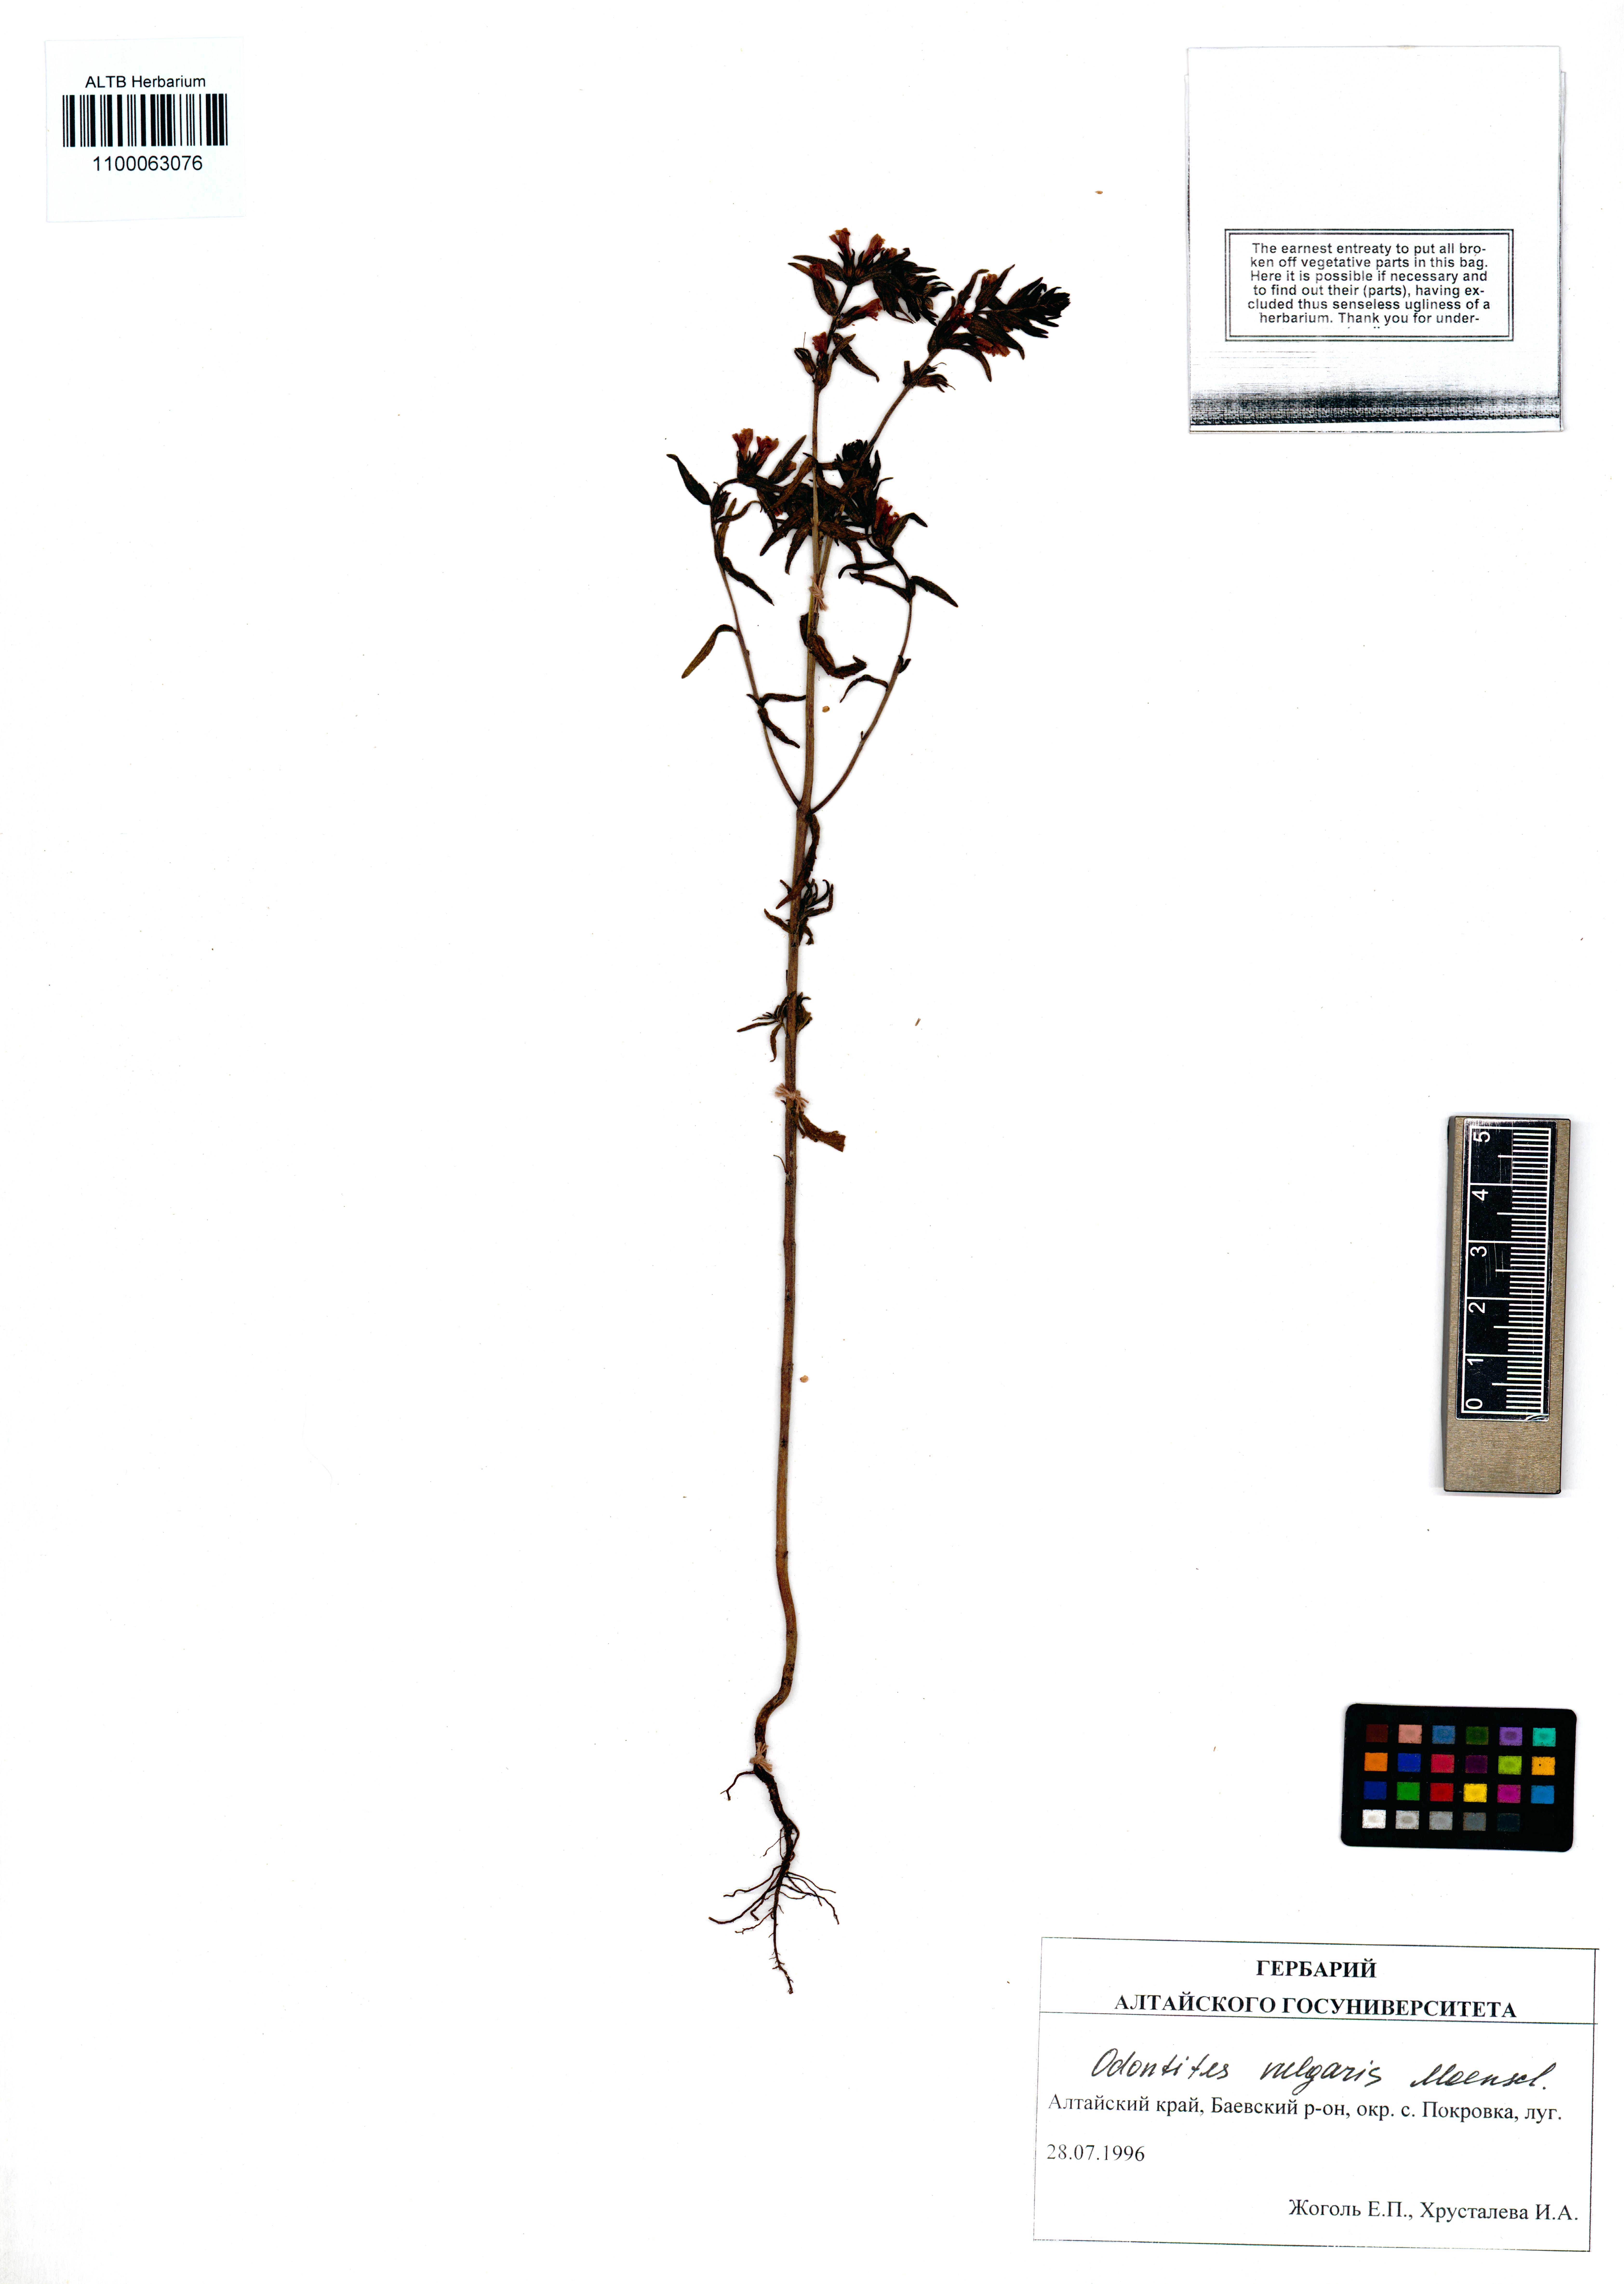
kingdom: Plantae
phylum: Tracheophyta
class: Magnoliopsida
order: Lamiales
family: Orobanchaceae
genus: Odontites
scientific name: Odontites vulgaris
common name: Broomrape
